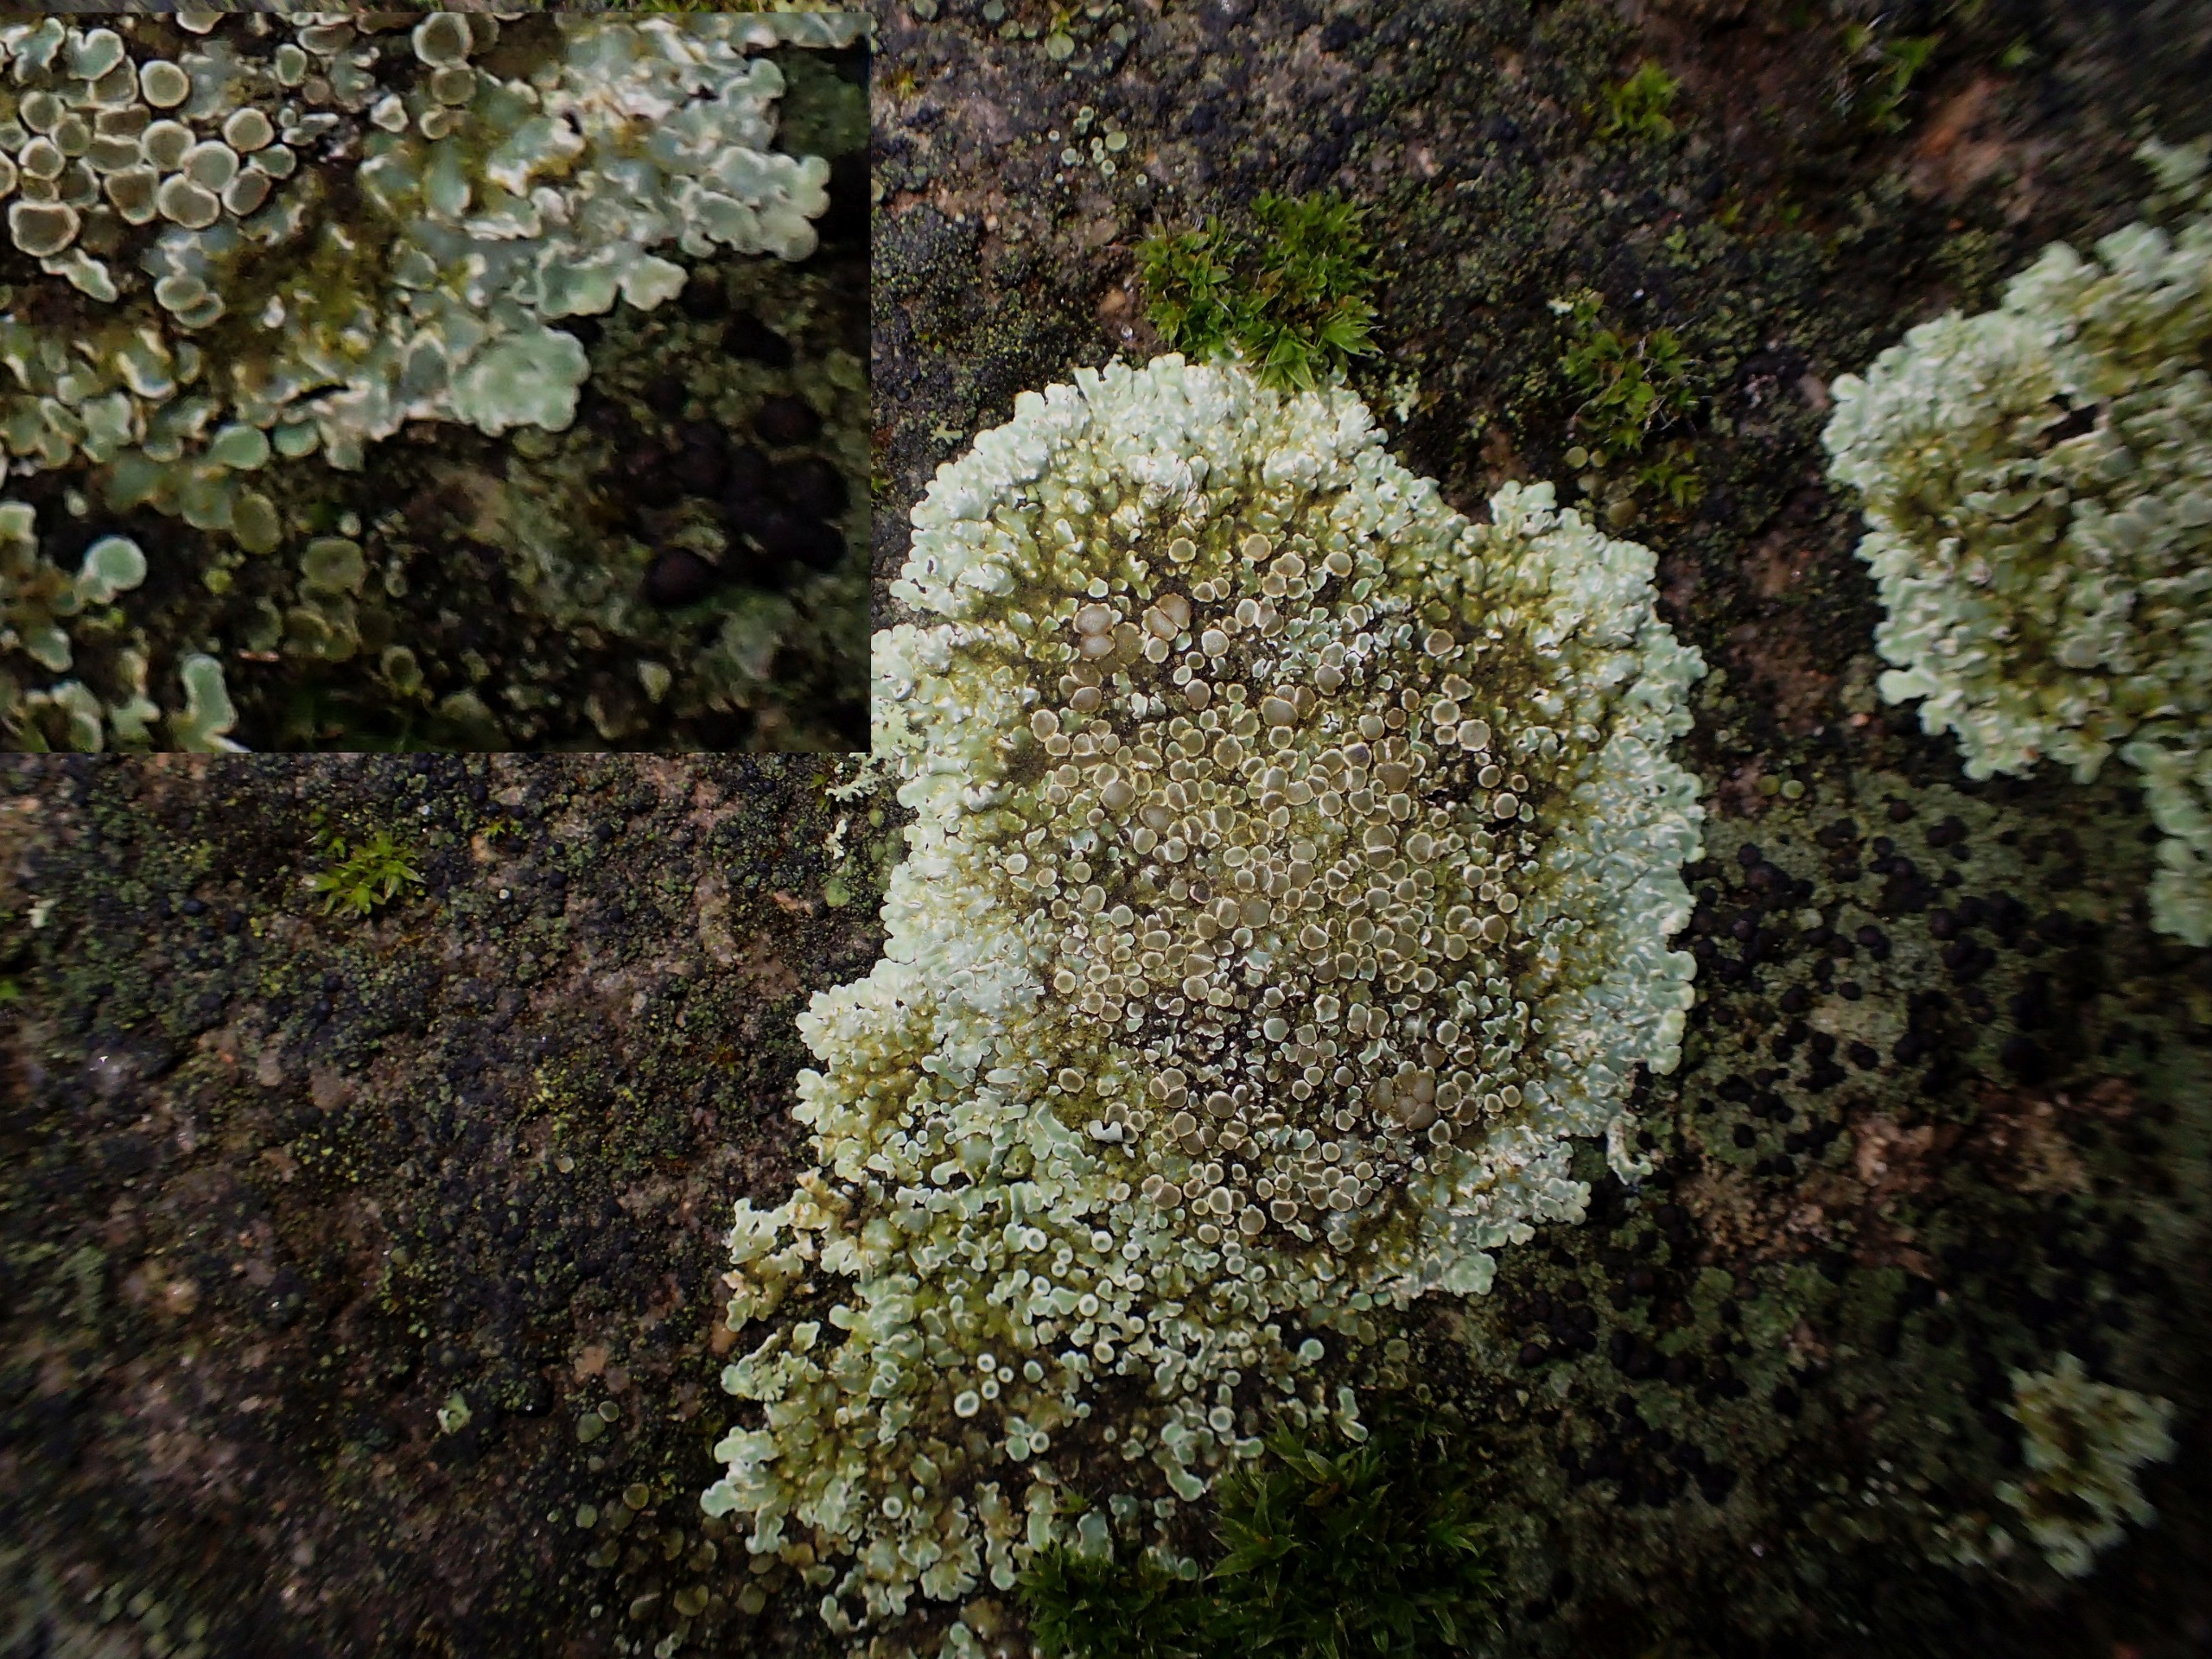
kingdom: Fungi
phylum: Ascomycota
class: Lecanoromycetes
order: Lecanorales
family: Lecanoraceae
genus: Protoparmeliopsis
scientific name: Protoparmeliopsis muralis
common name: Randfliget kantskivelav
